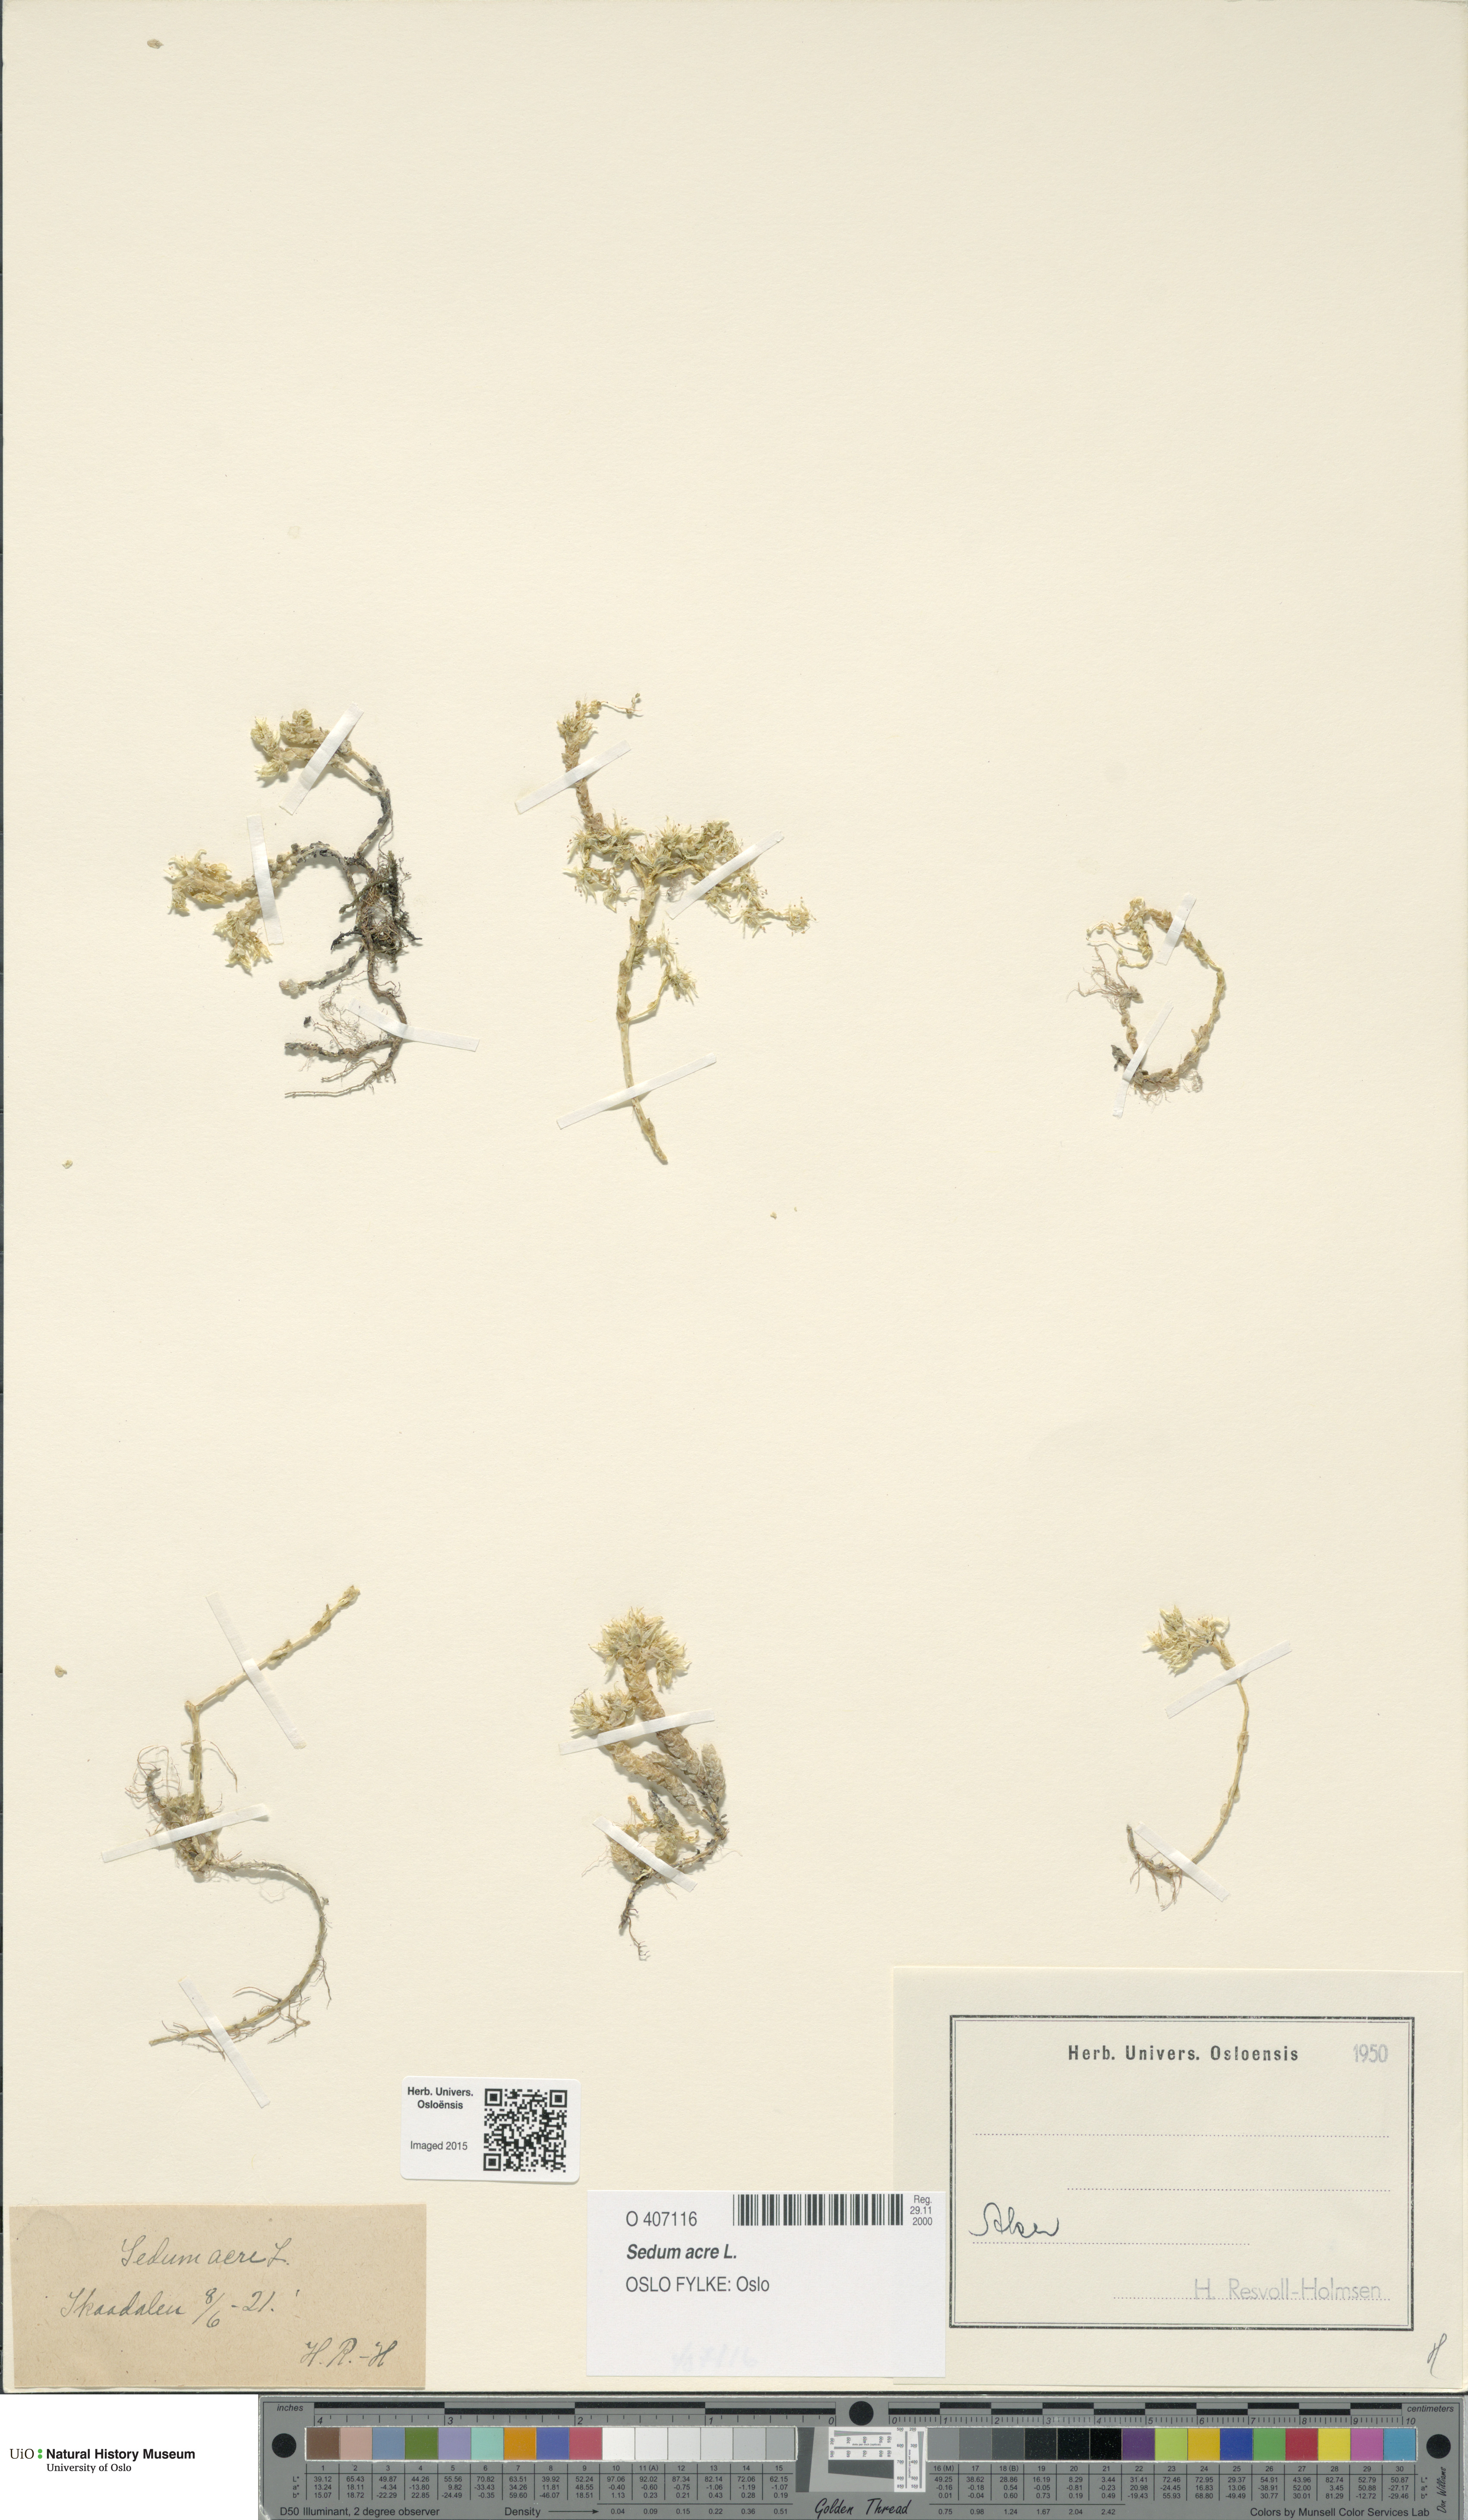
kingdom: Plantae
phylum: Tracheophyta
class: Magnoliopsida
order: Saxifragales
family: Crassulaceae
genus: Sedum
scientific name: Sedum acre
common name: Biting stonecrop
